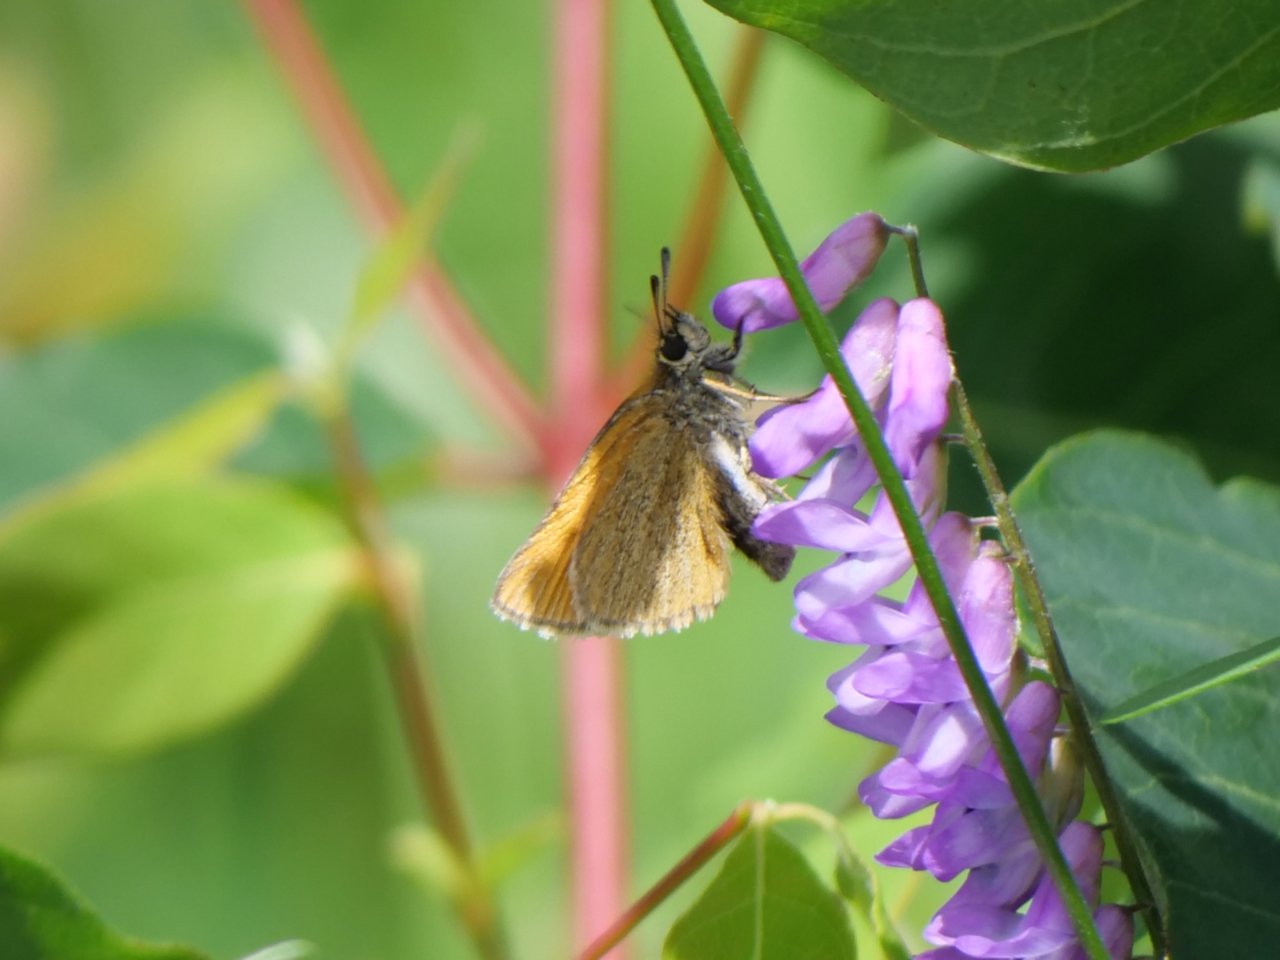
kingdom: Animalia
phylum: Arthropoda
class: Insecta
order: Lepidoptera
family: Hesperiidae
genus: Thymelicus
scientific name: Thymelicus lineola
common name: European Skipper
